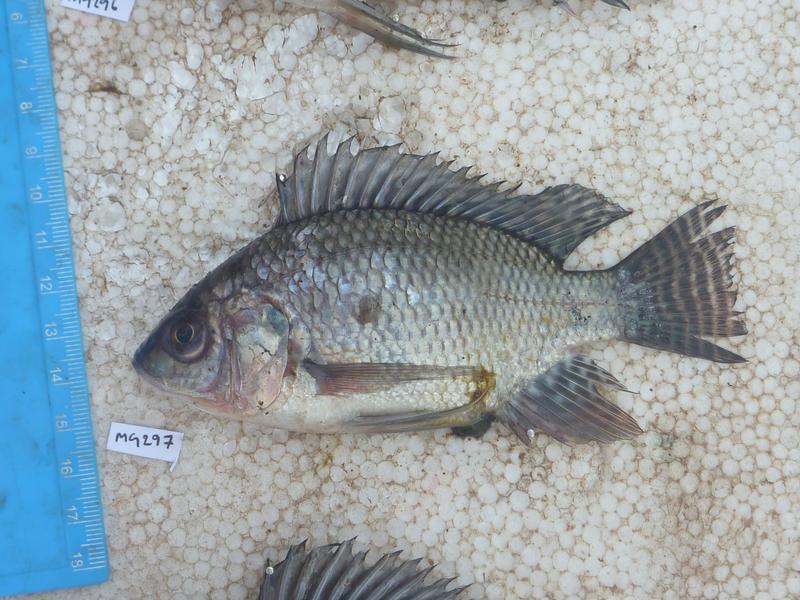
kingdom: Animalia
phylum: Chordata
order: Perciformes
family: Cichlidae
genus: Oreochromis
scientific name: Oreochromis niloticus
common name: Nile tilapia
